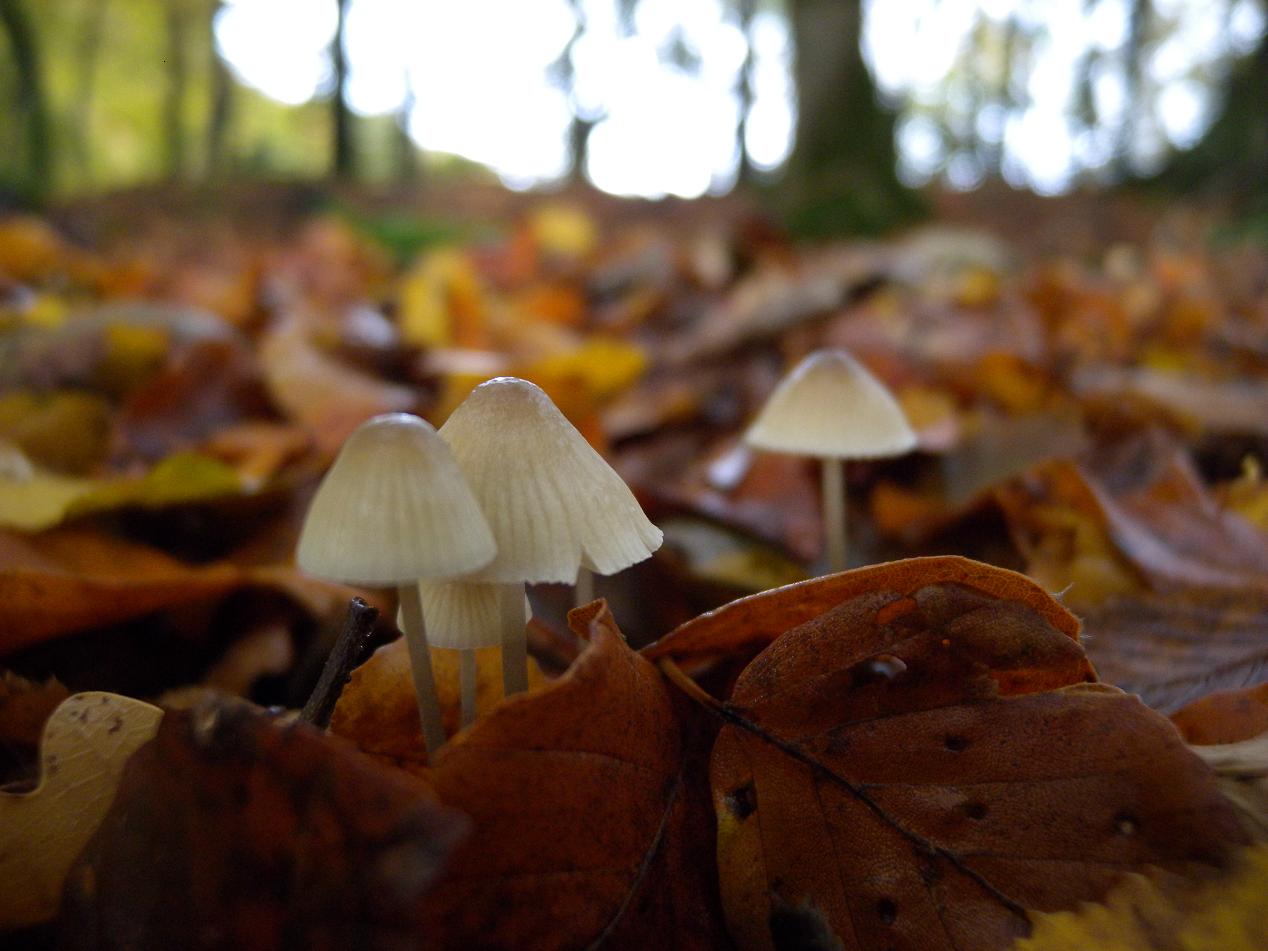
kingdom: Fungi
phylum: Basidiomycota
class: Agaricomycetes
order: Agaricales
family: Mycenaceae
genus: Mycena
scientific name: Mycena filopes
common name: jod-huesvamp
